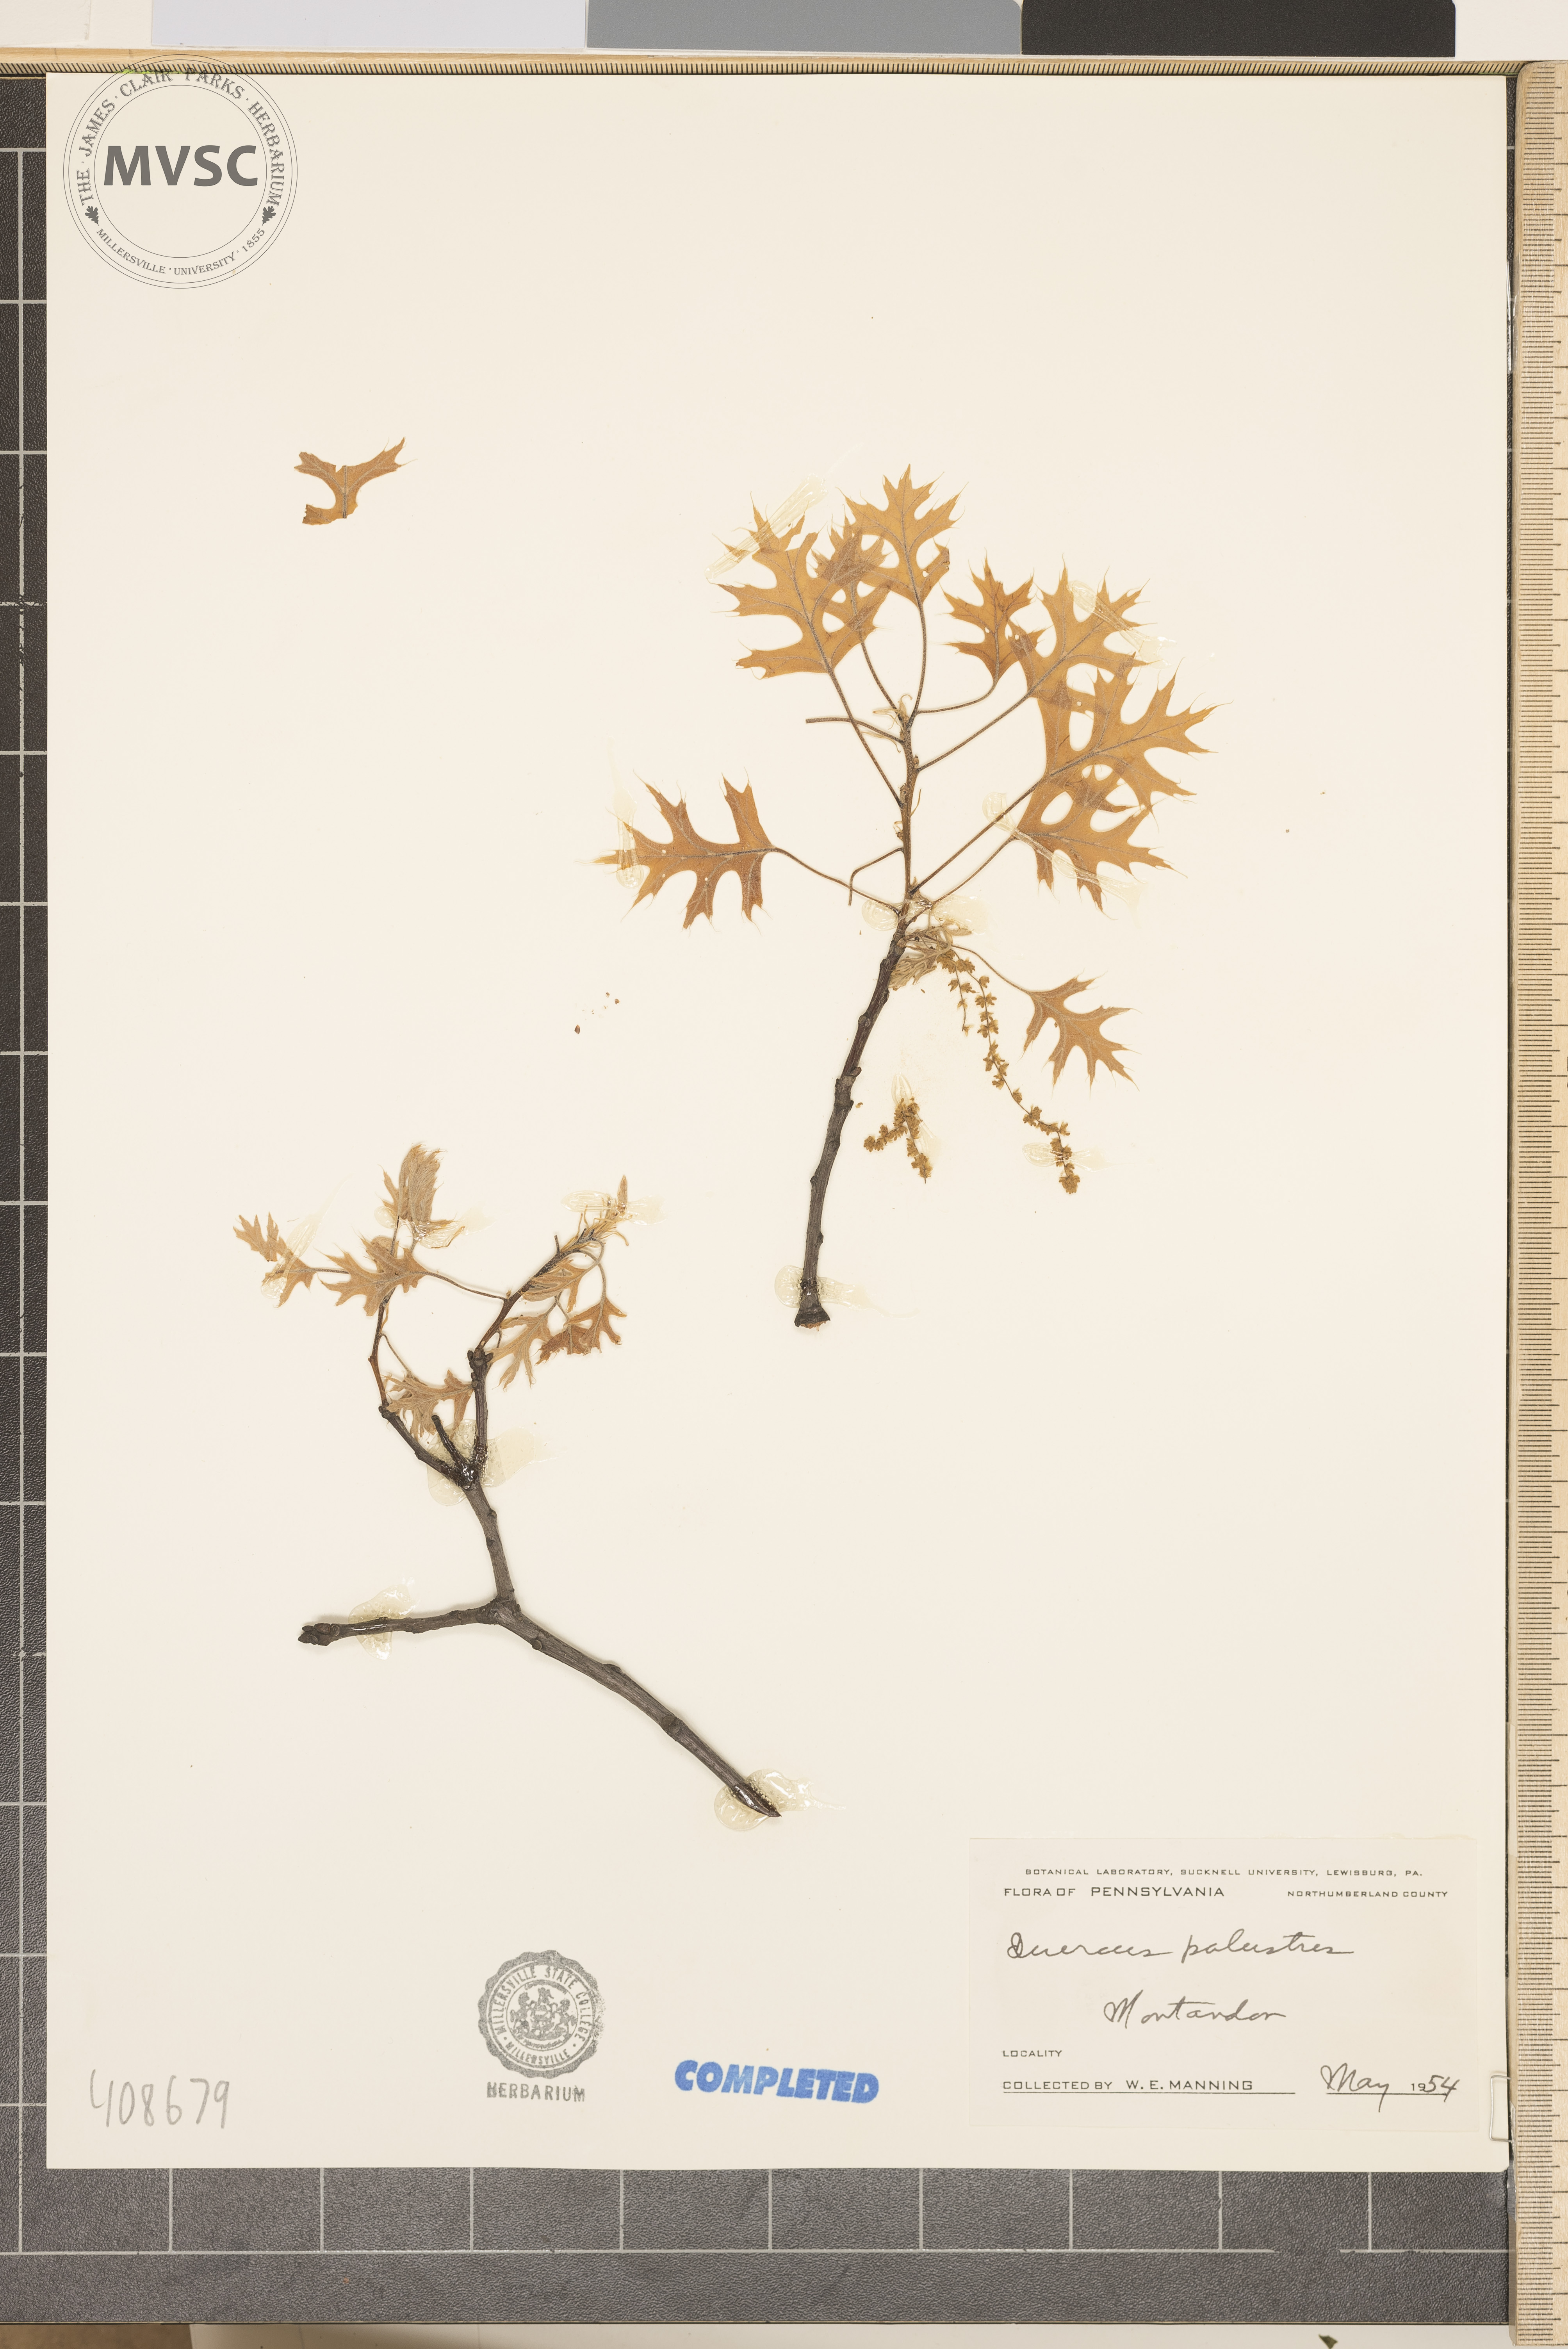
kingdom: Plantae
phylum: Tracheophyta
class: Magnoliopsida
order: Fagales
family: Fagaceae
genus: Quercus
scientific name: Quercus palustris
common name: Pin oak
